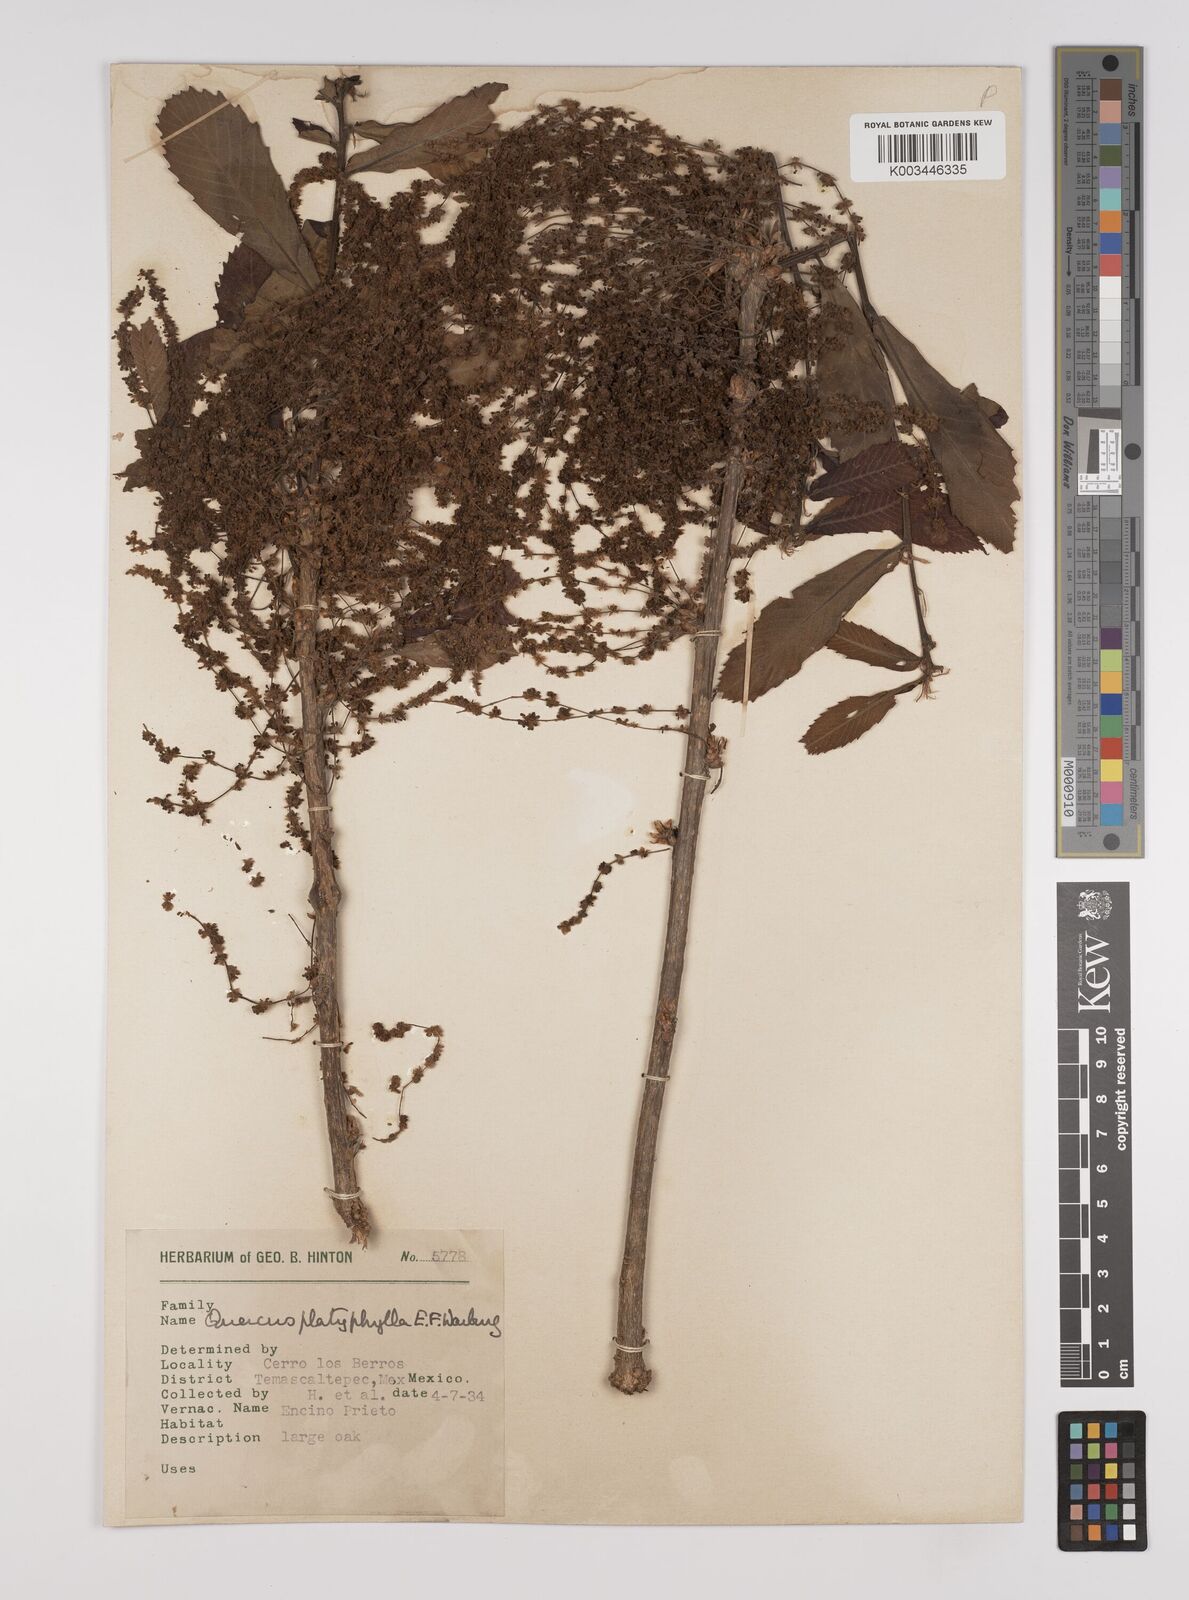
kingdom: Plantae
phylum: Tracheophyta
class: Magnoliopsida
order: Fagales
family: Fagaceae
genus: Quercus
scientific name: Quercus
